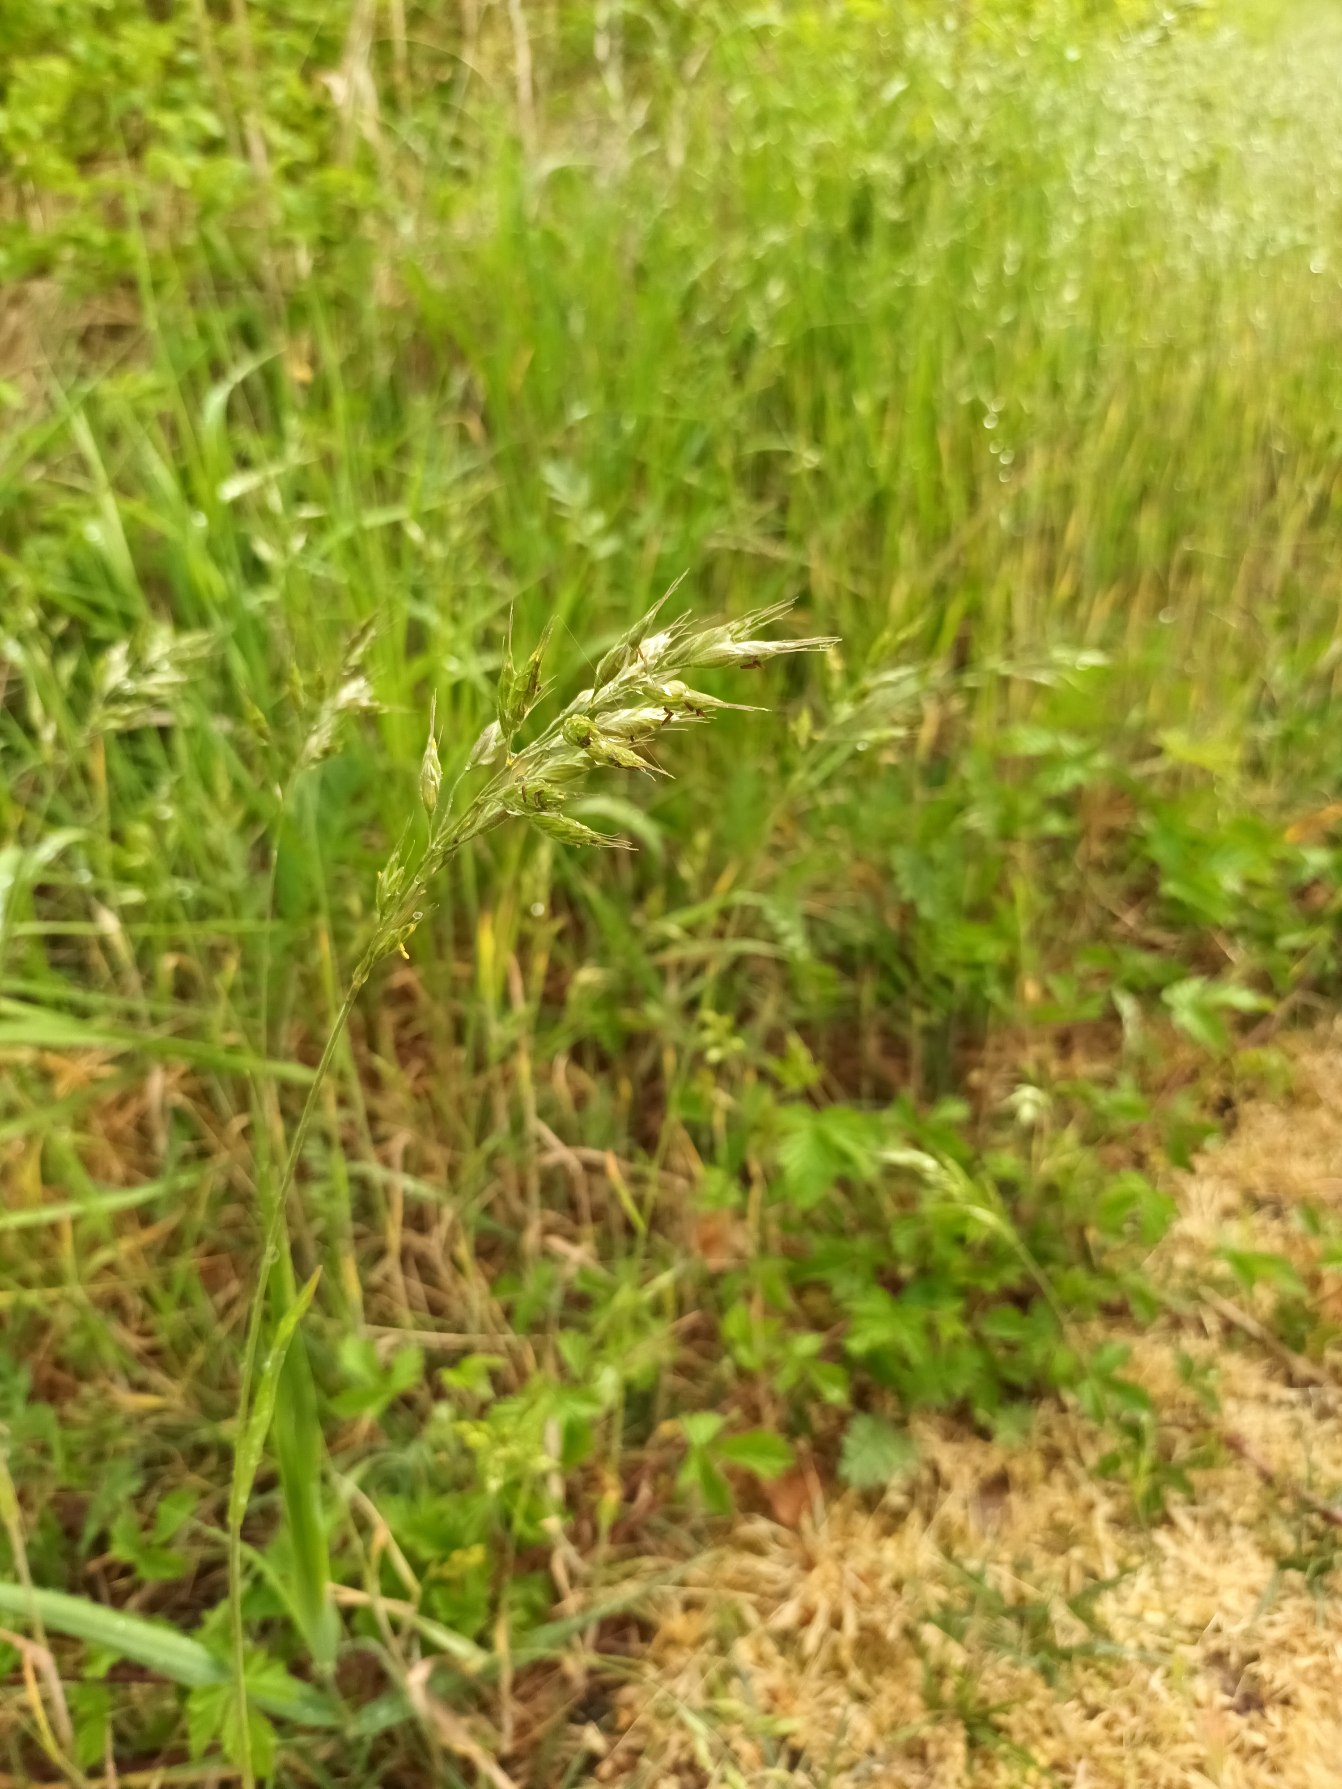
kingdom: Plantae
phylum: Tracheophyta
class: Liliopsida
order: Poales
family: Poaceae
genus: Bromus
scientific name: Bromus hordeaceus
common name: Blød hejre
